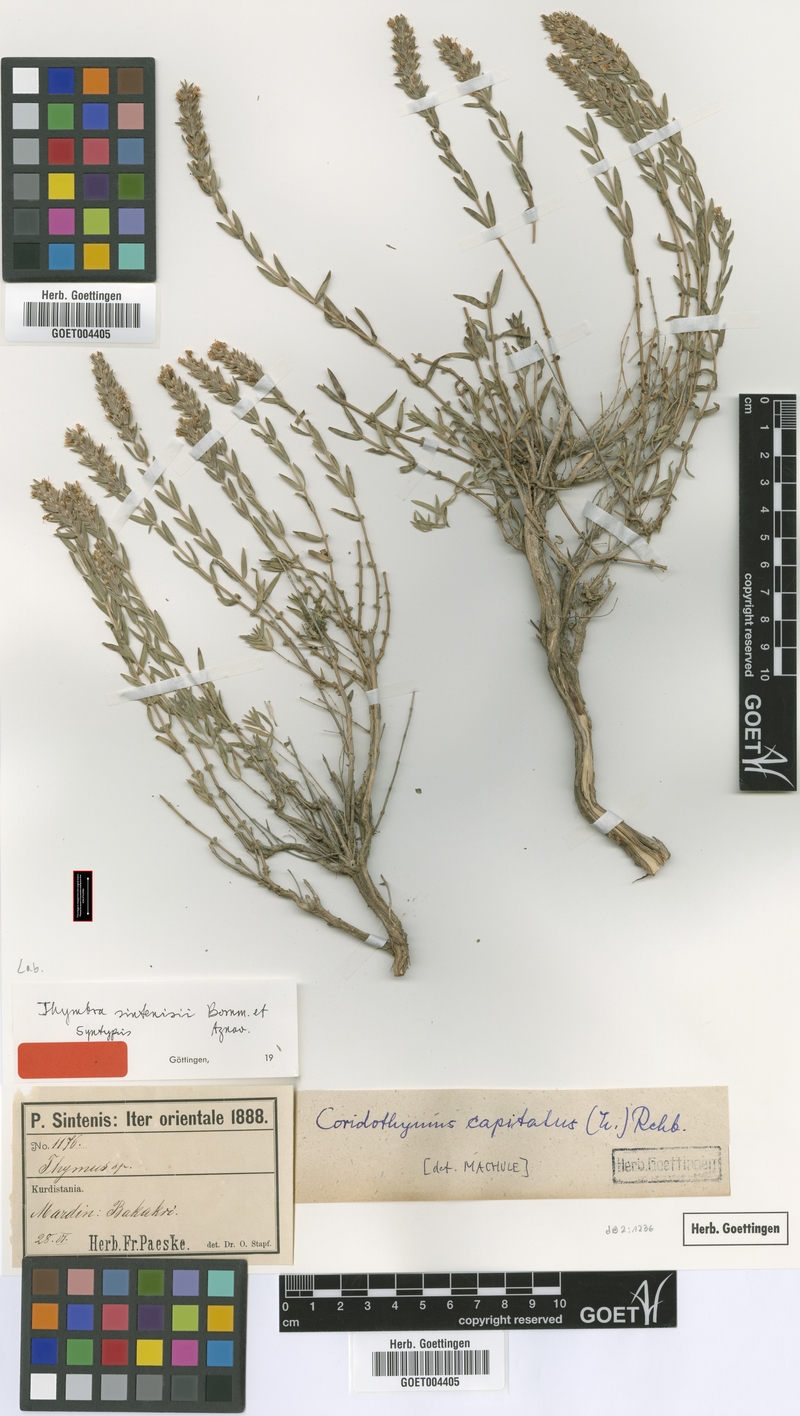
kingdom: Plantae
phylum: Tracheophyta
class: Magnoliopsida
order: Lamiales
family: Lamiaceae
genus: Thymbra
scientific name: Thymbra sintenisii
